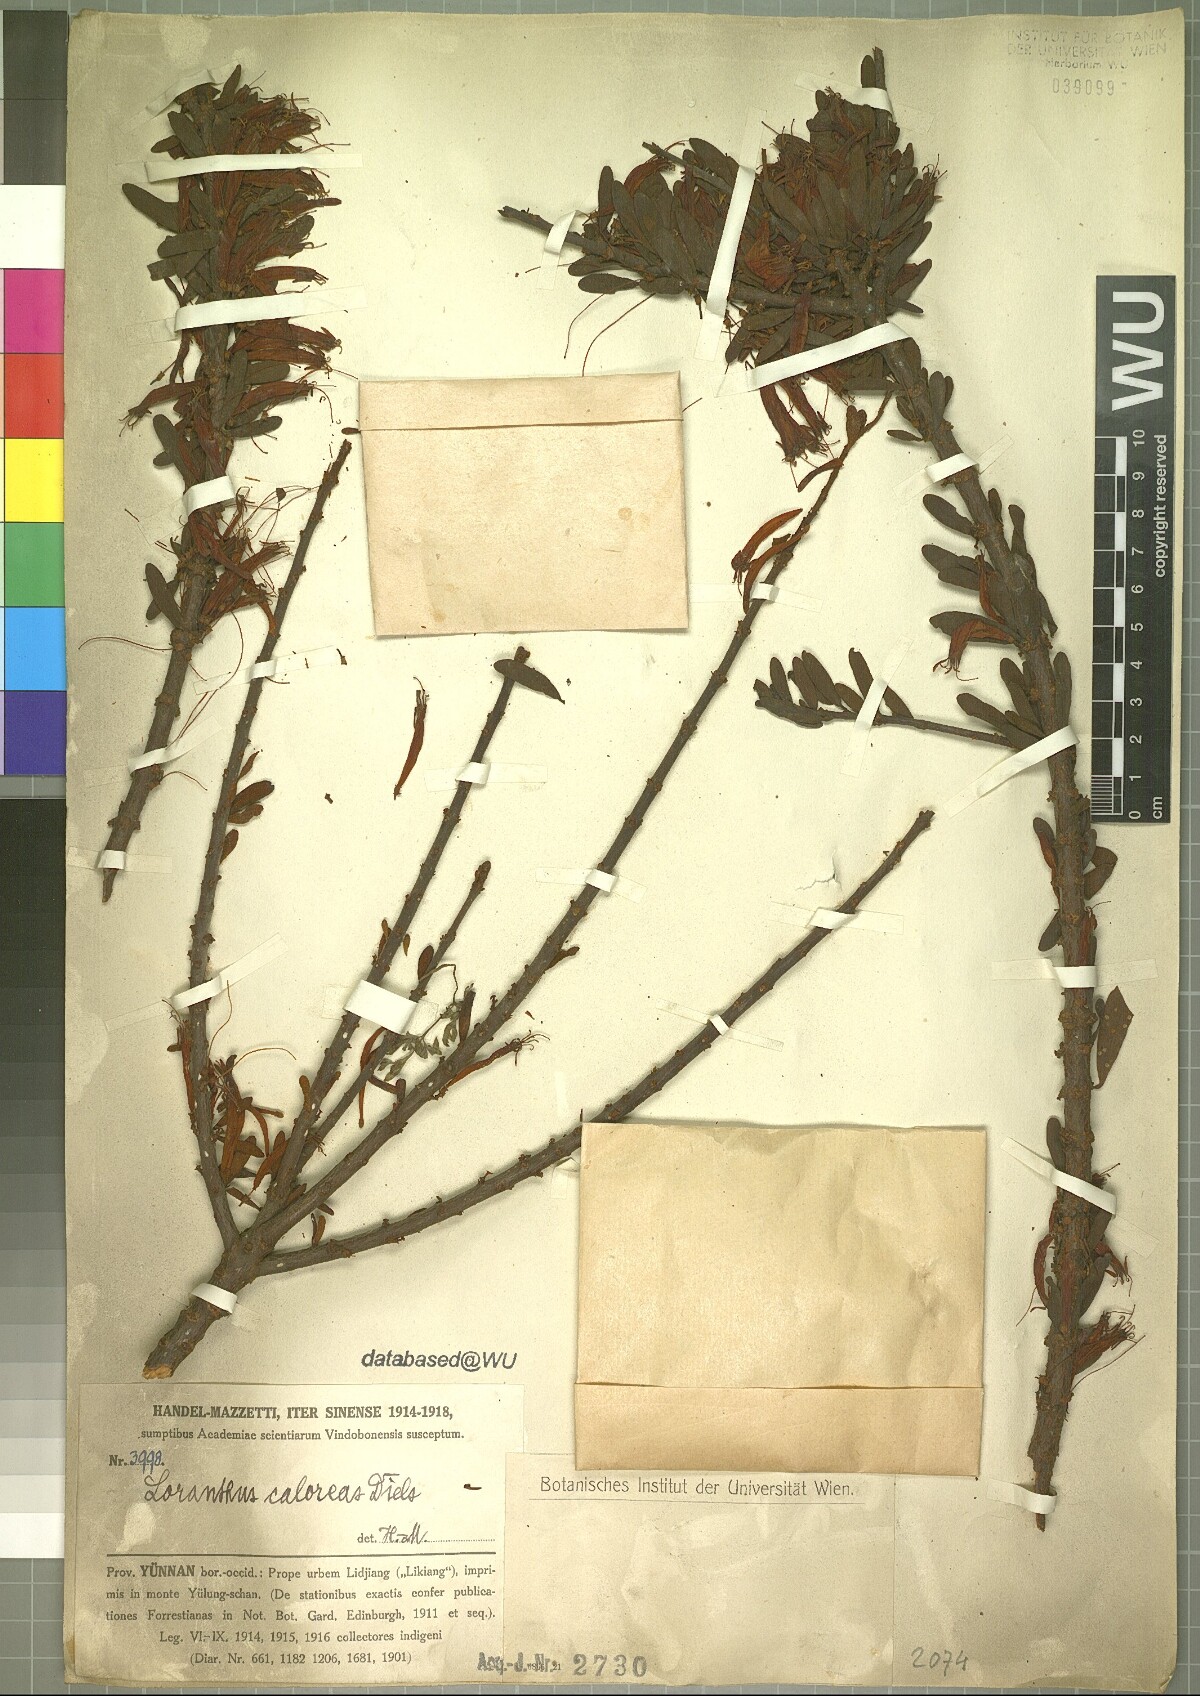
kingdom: Plantae
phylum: Tracheophyta
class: Magnoliopsida
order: Santalales
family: Loranthaceae
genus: Taxillus
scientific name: Taxillus caloreas
